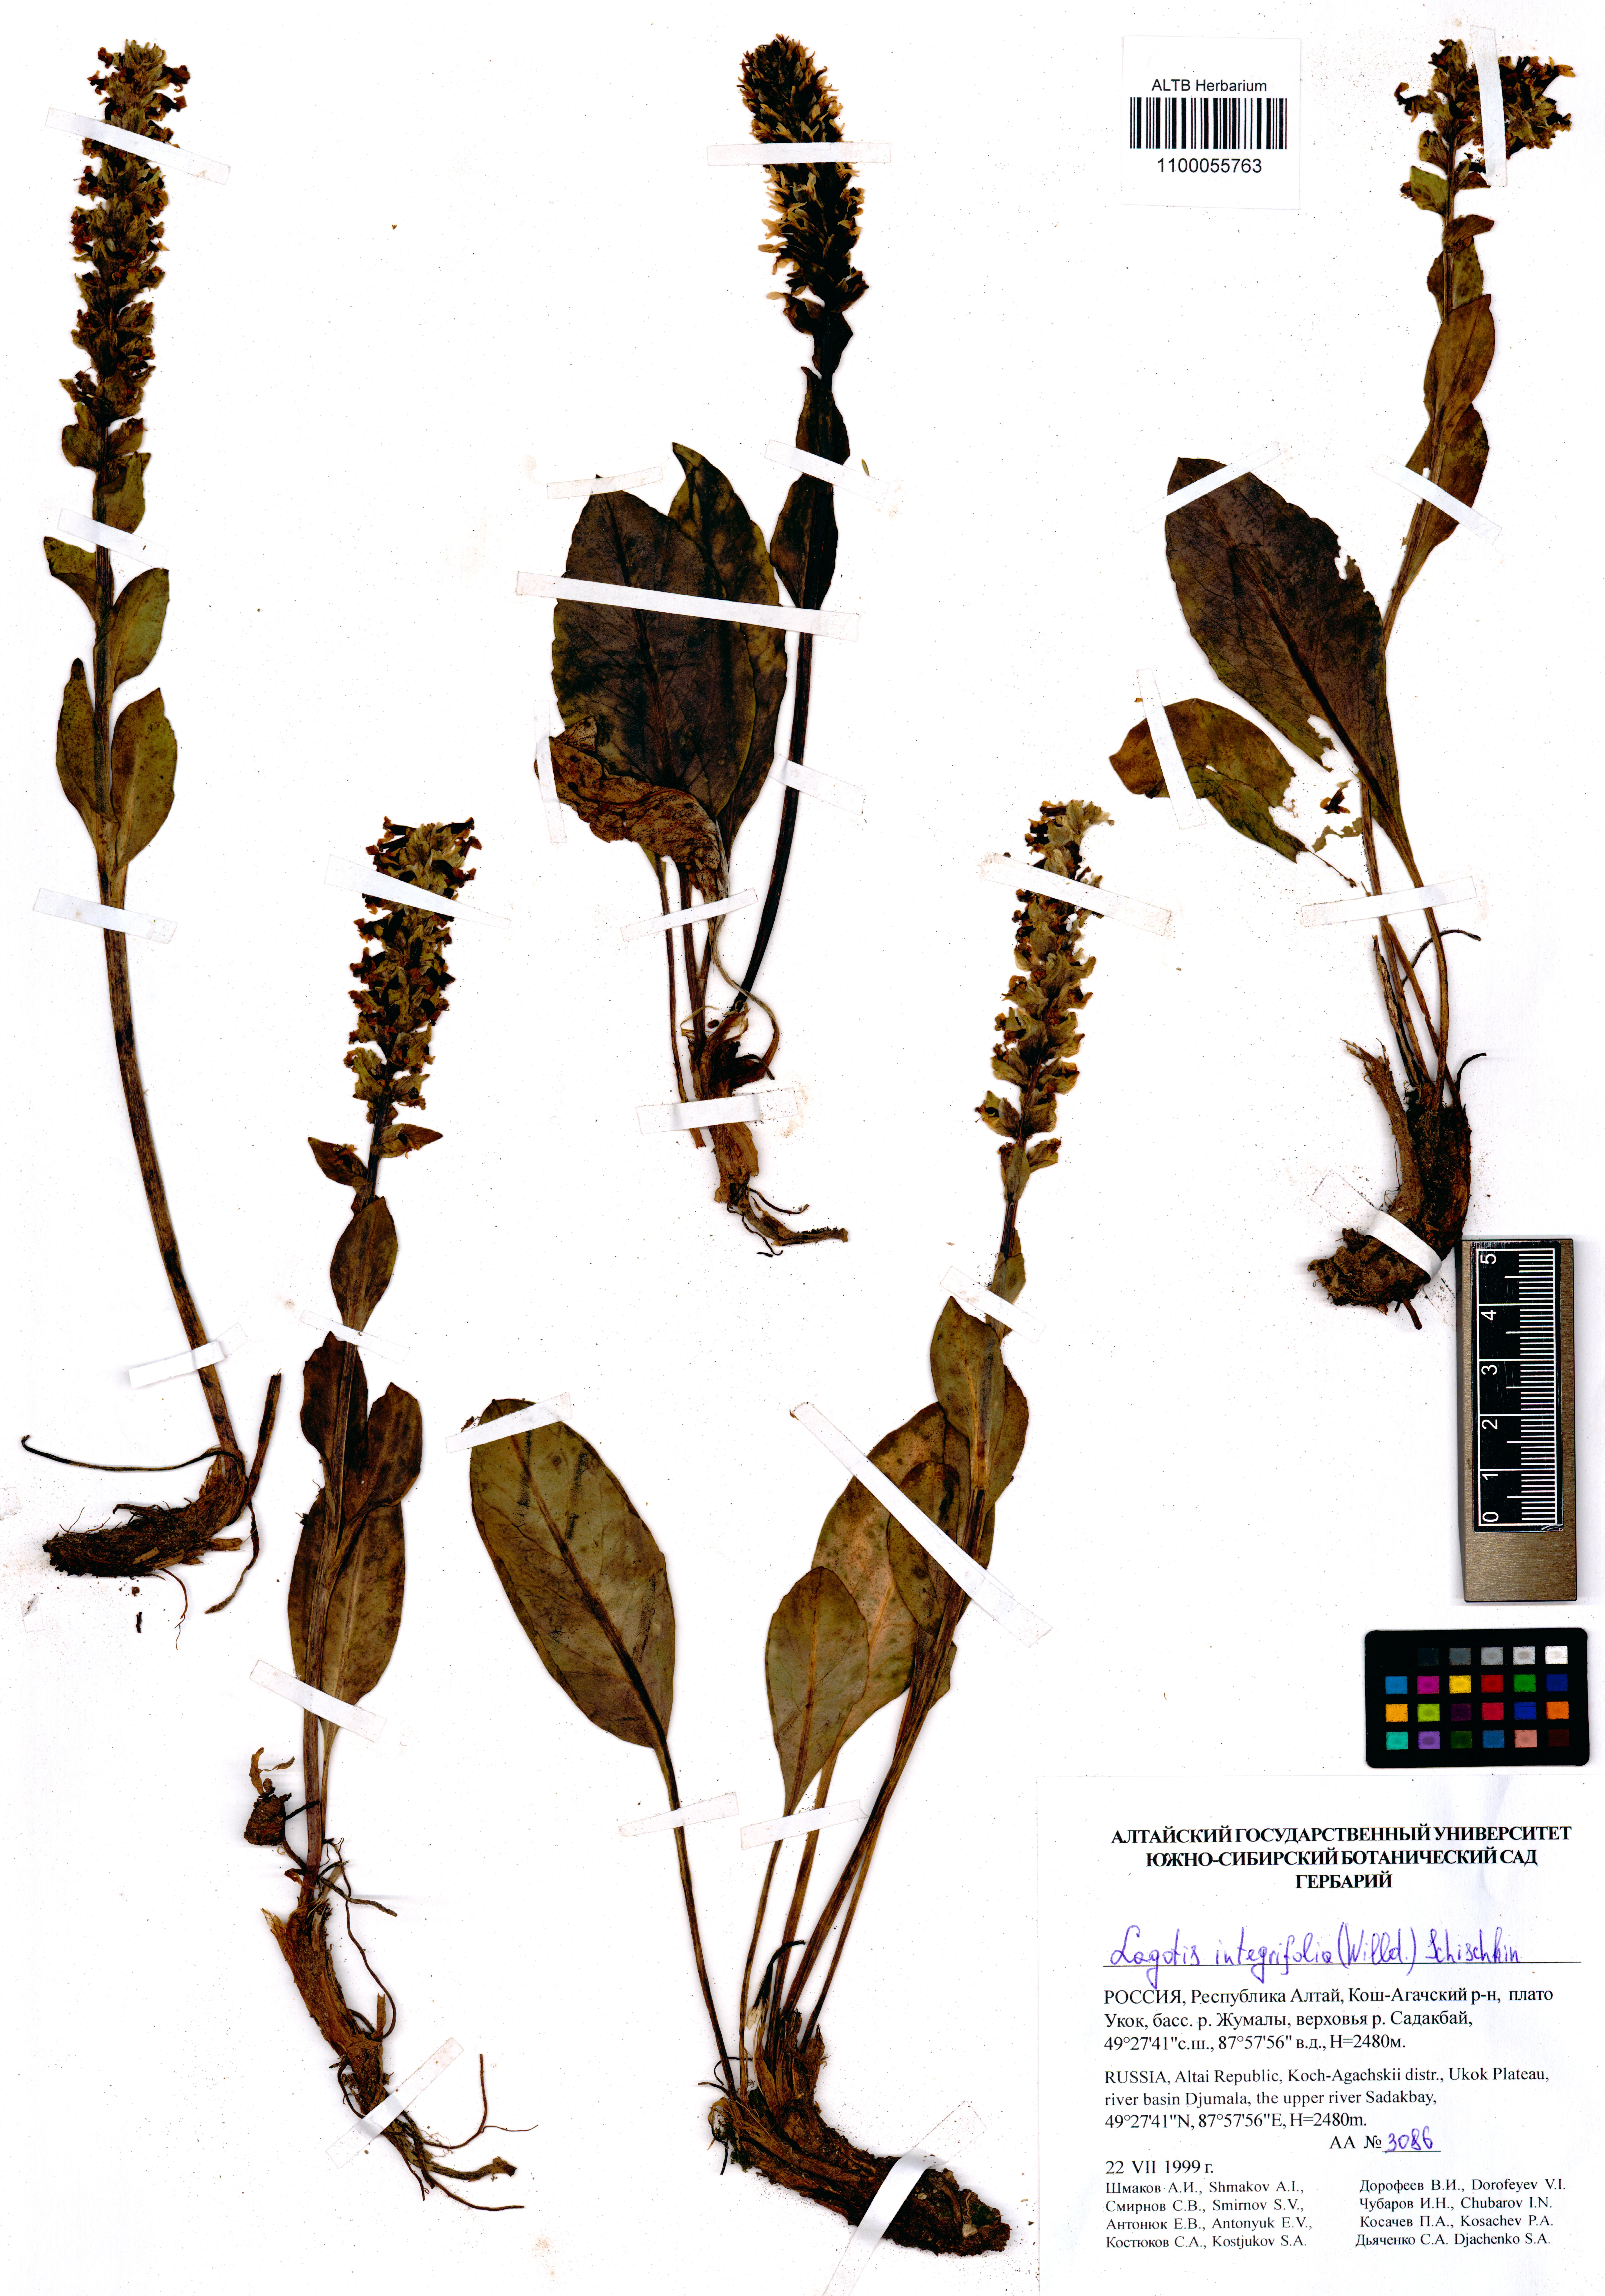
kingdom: Plantae
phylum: Tracheophyta
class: Magnoliopsida
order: Lamiales
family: Plantaginaceae
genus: Lagotis
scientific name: Lagotis integrifolia
